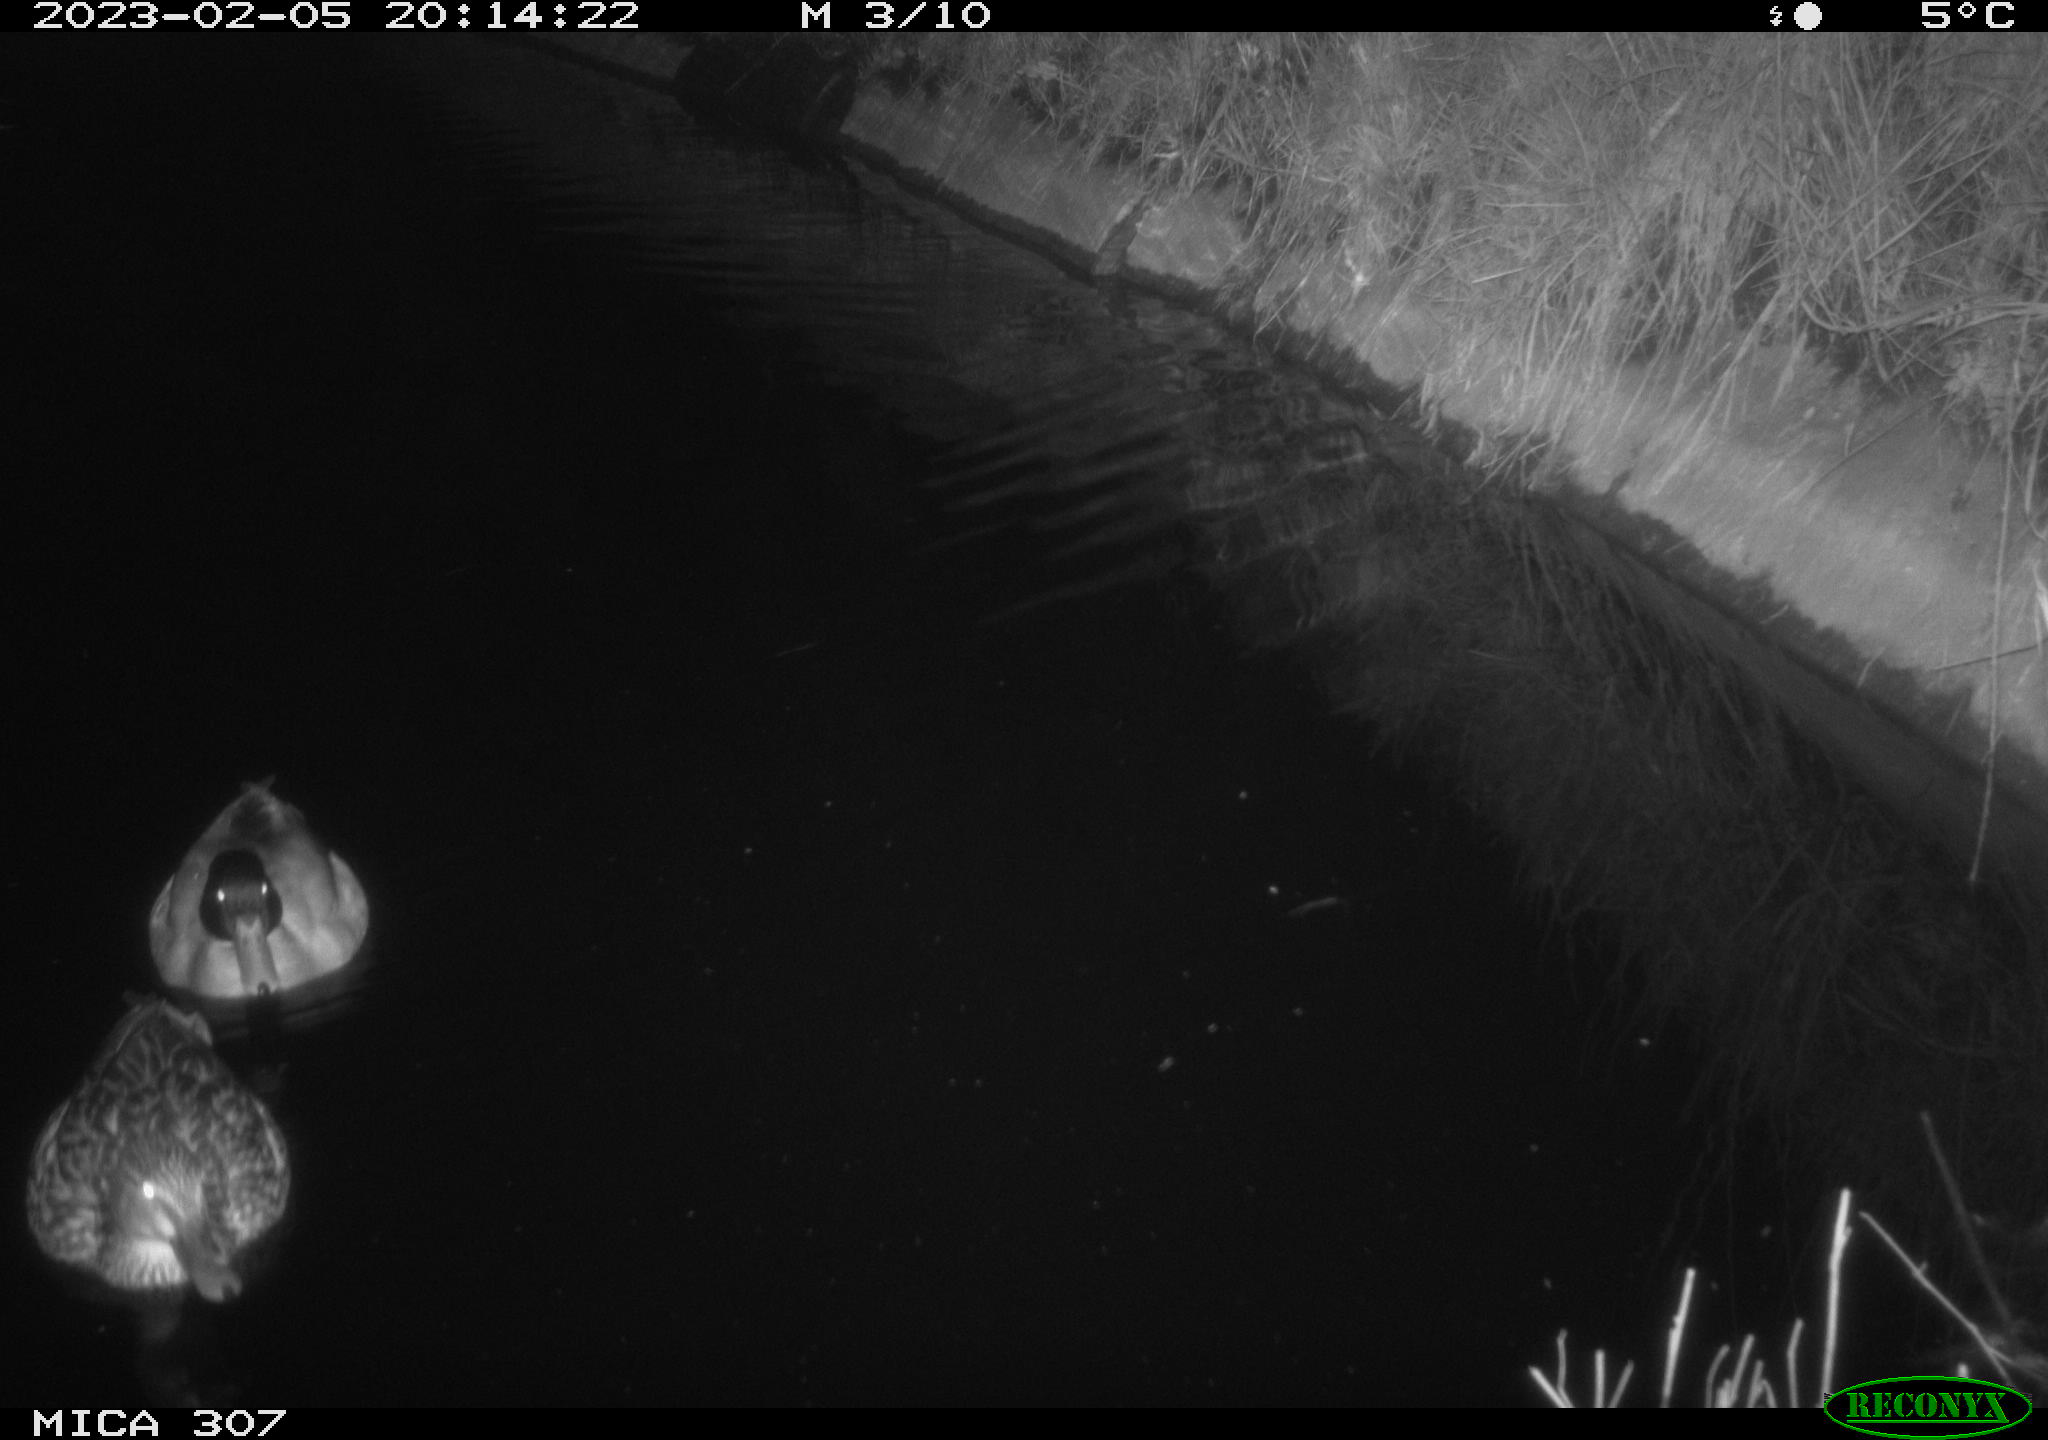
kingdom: Animalia
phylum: Chordata
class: Aves
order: Anseriformes
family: Anatidae
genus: Anas
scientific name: Anas
